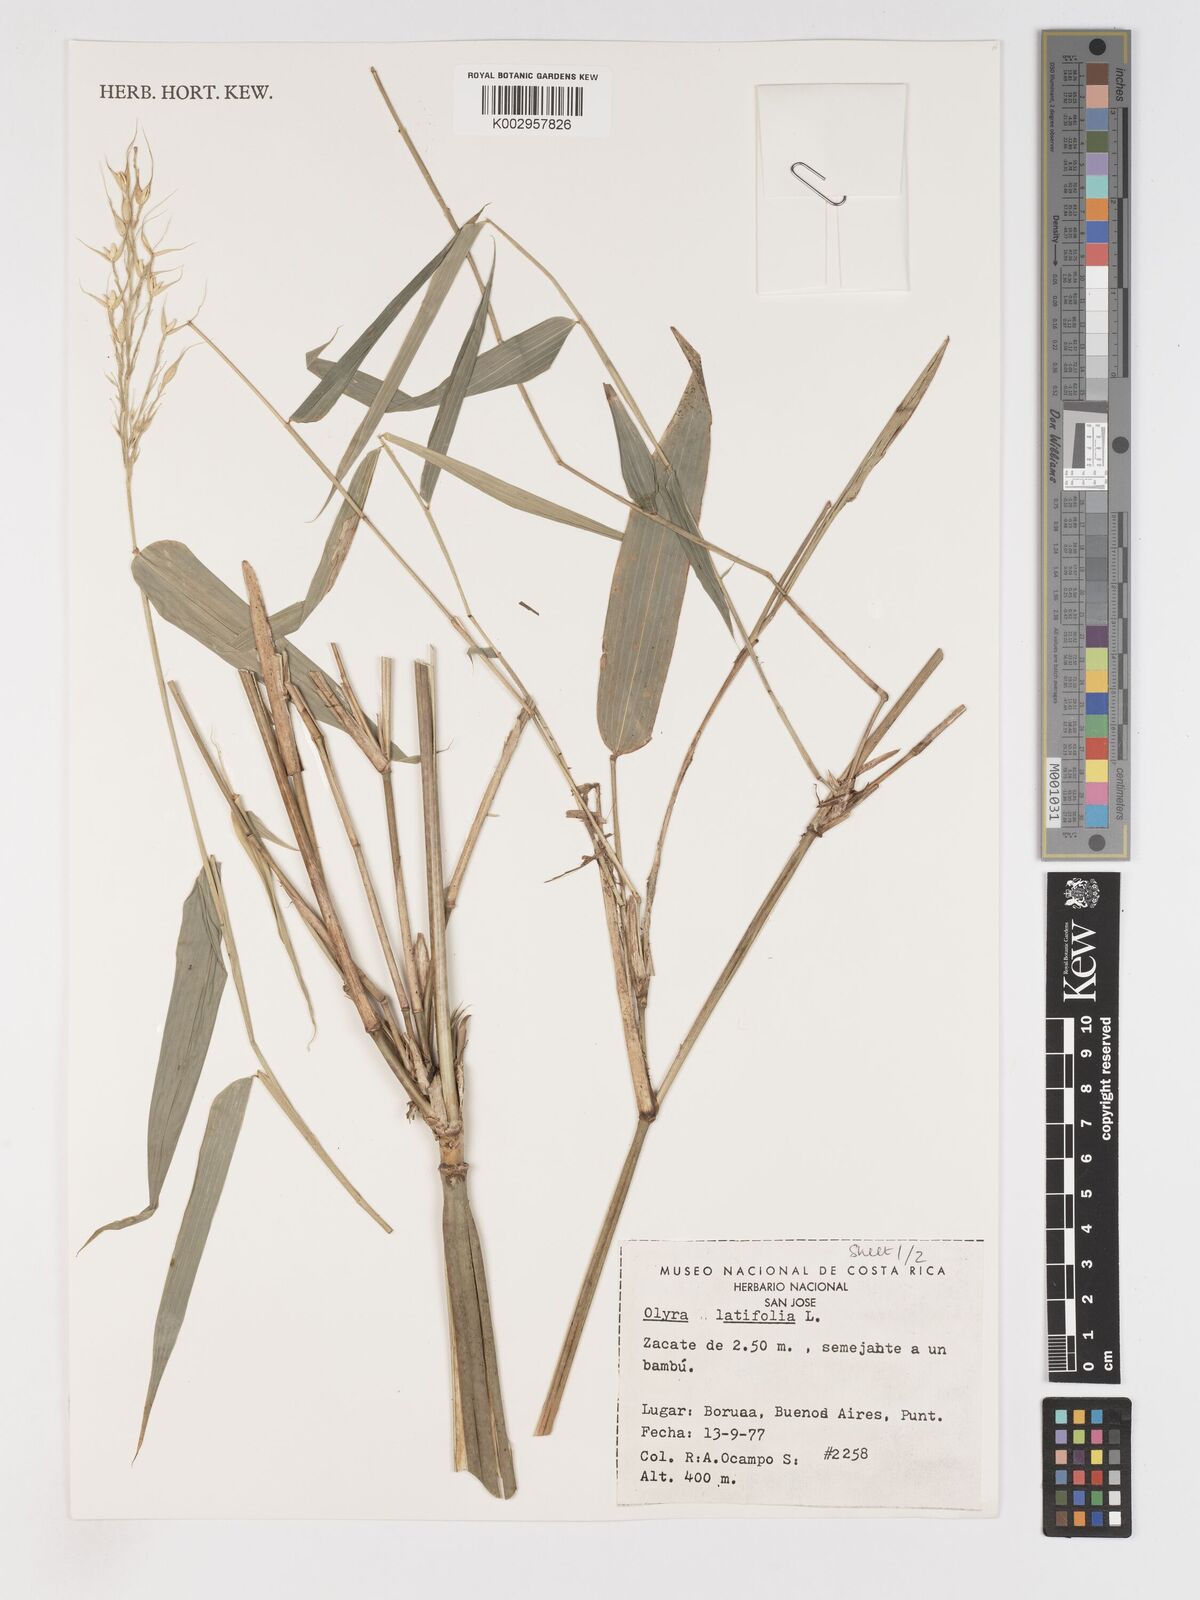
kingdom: Plantae
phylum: Tracheophyta
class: Liliopsida
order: Poales
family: Poaceae
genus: Olyra
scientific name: Olyra latifolia
